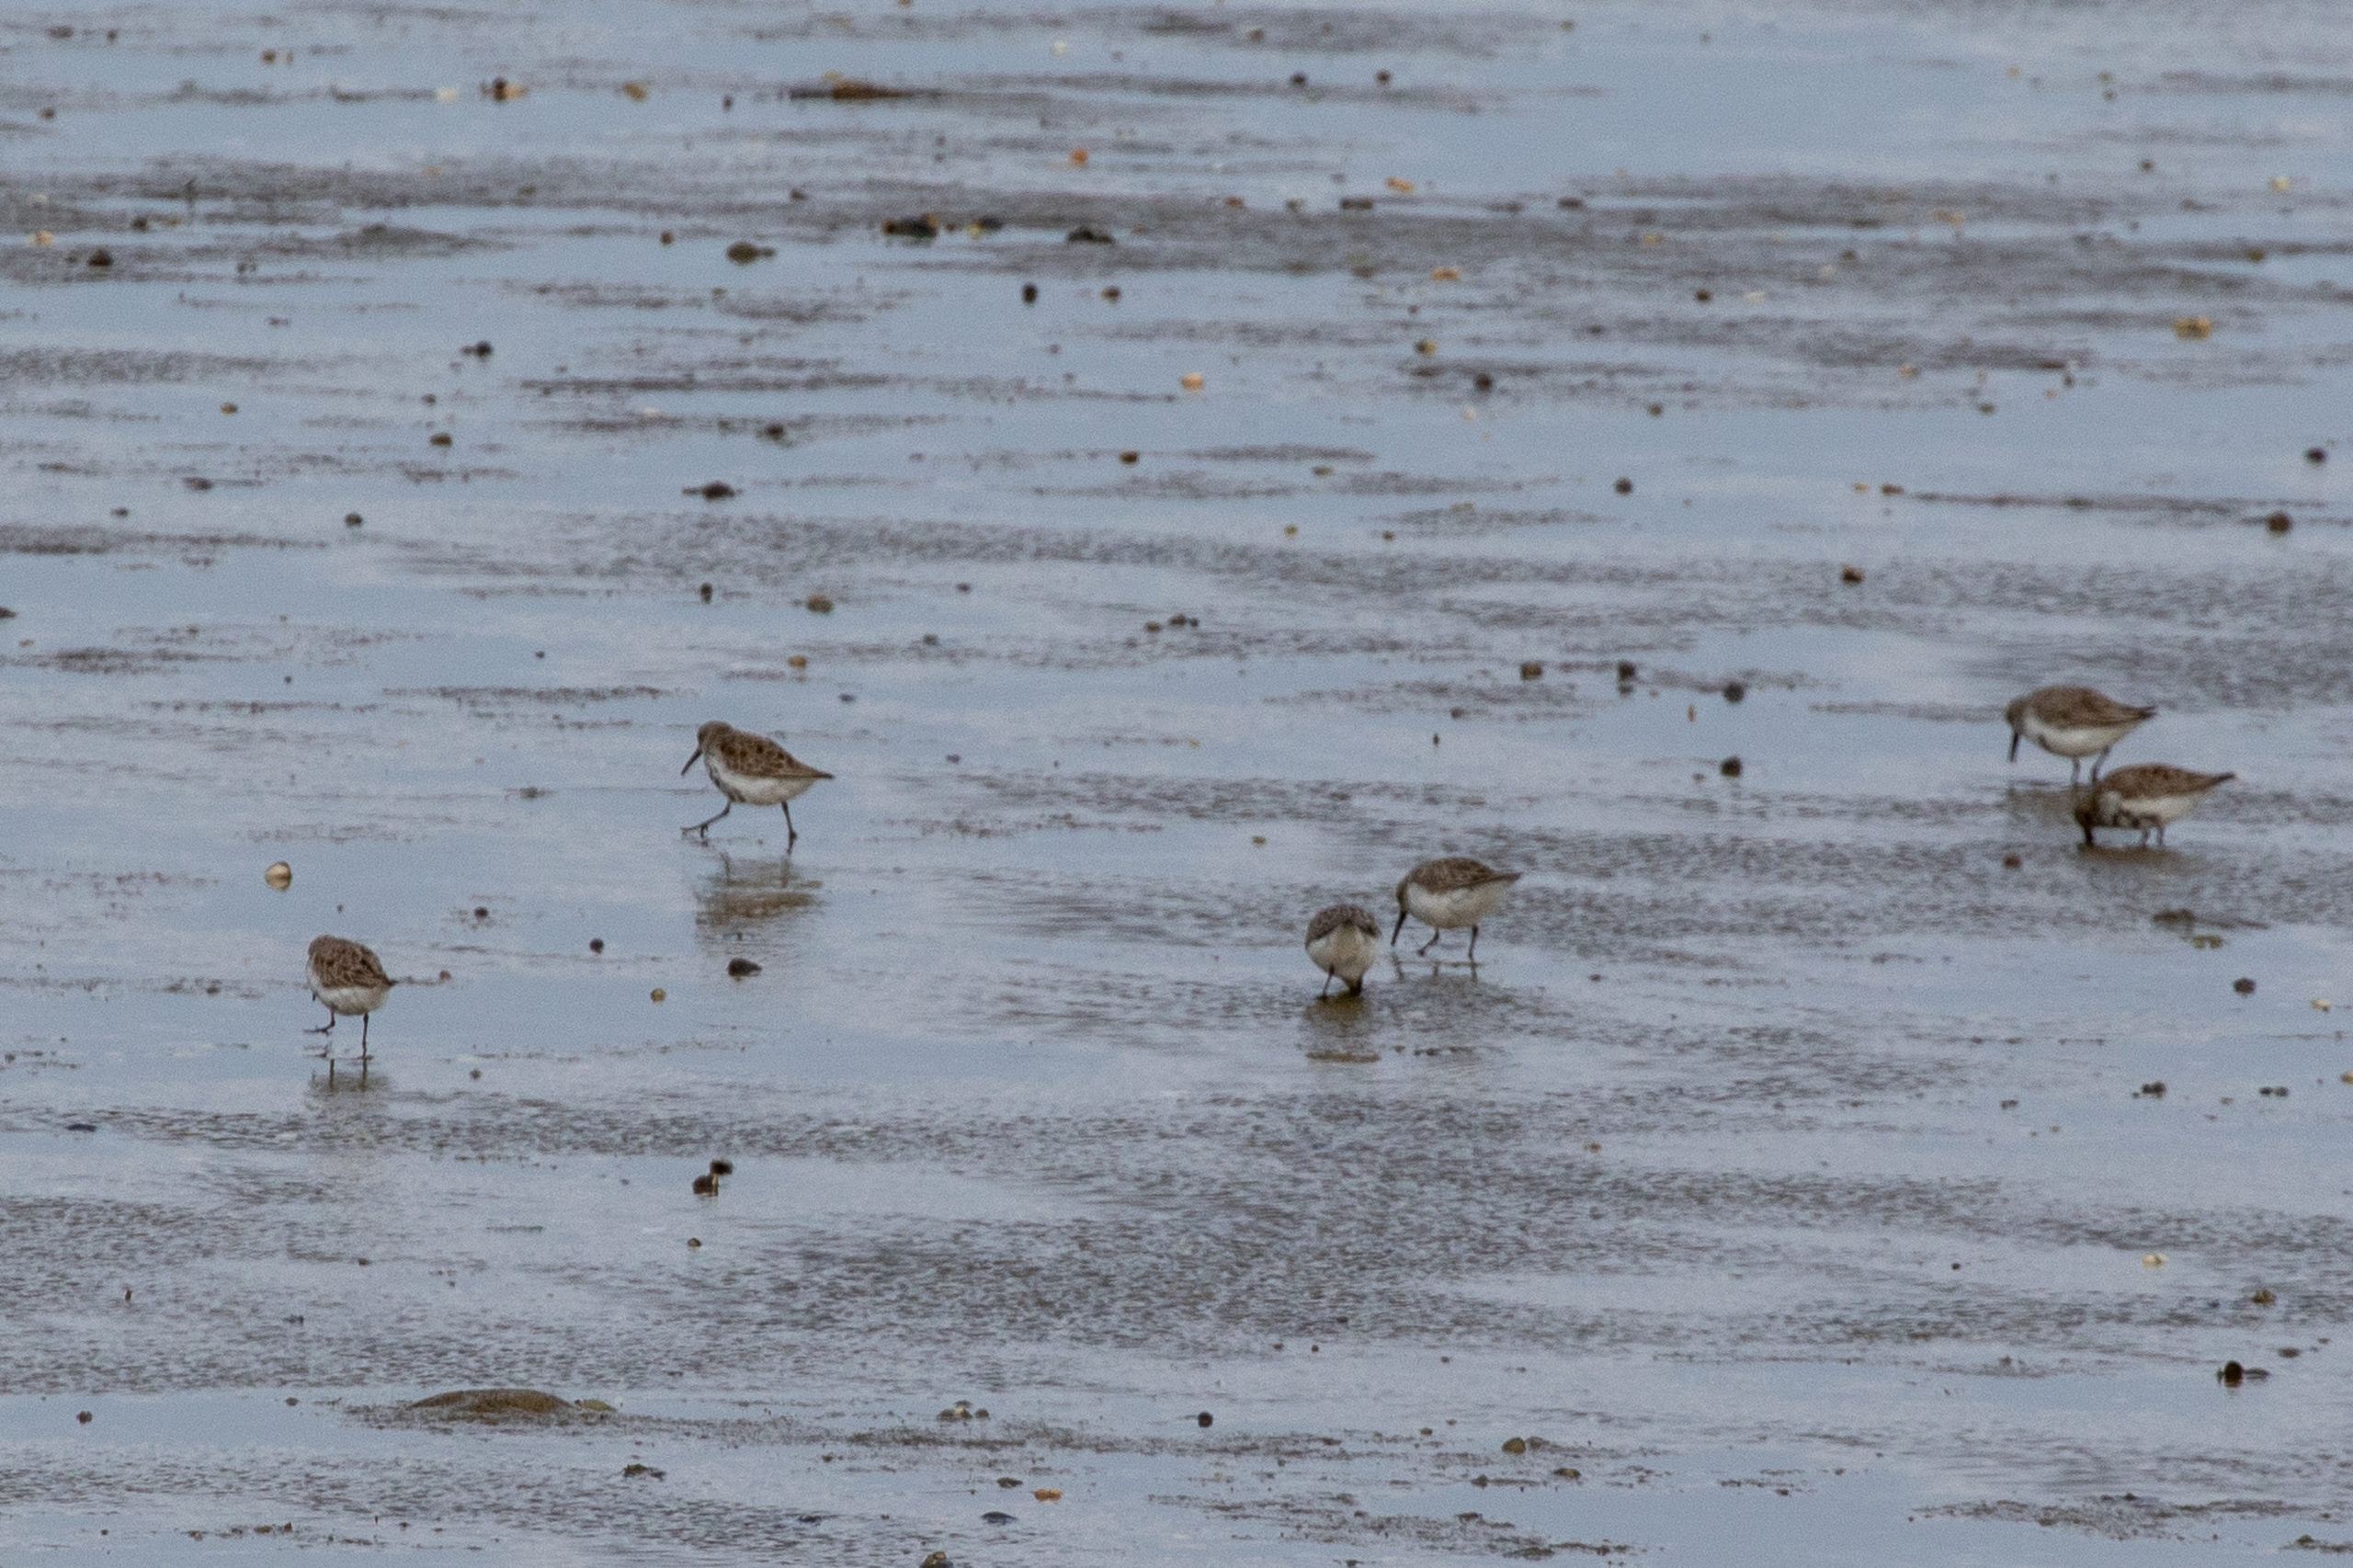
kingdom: Animalia
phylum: Chordata
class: Aves
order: Charadriiformes
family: Scolopacidae
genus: Calidris
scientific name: Calidris alpina
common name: Almindelig ryle
